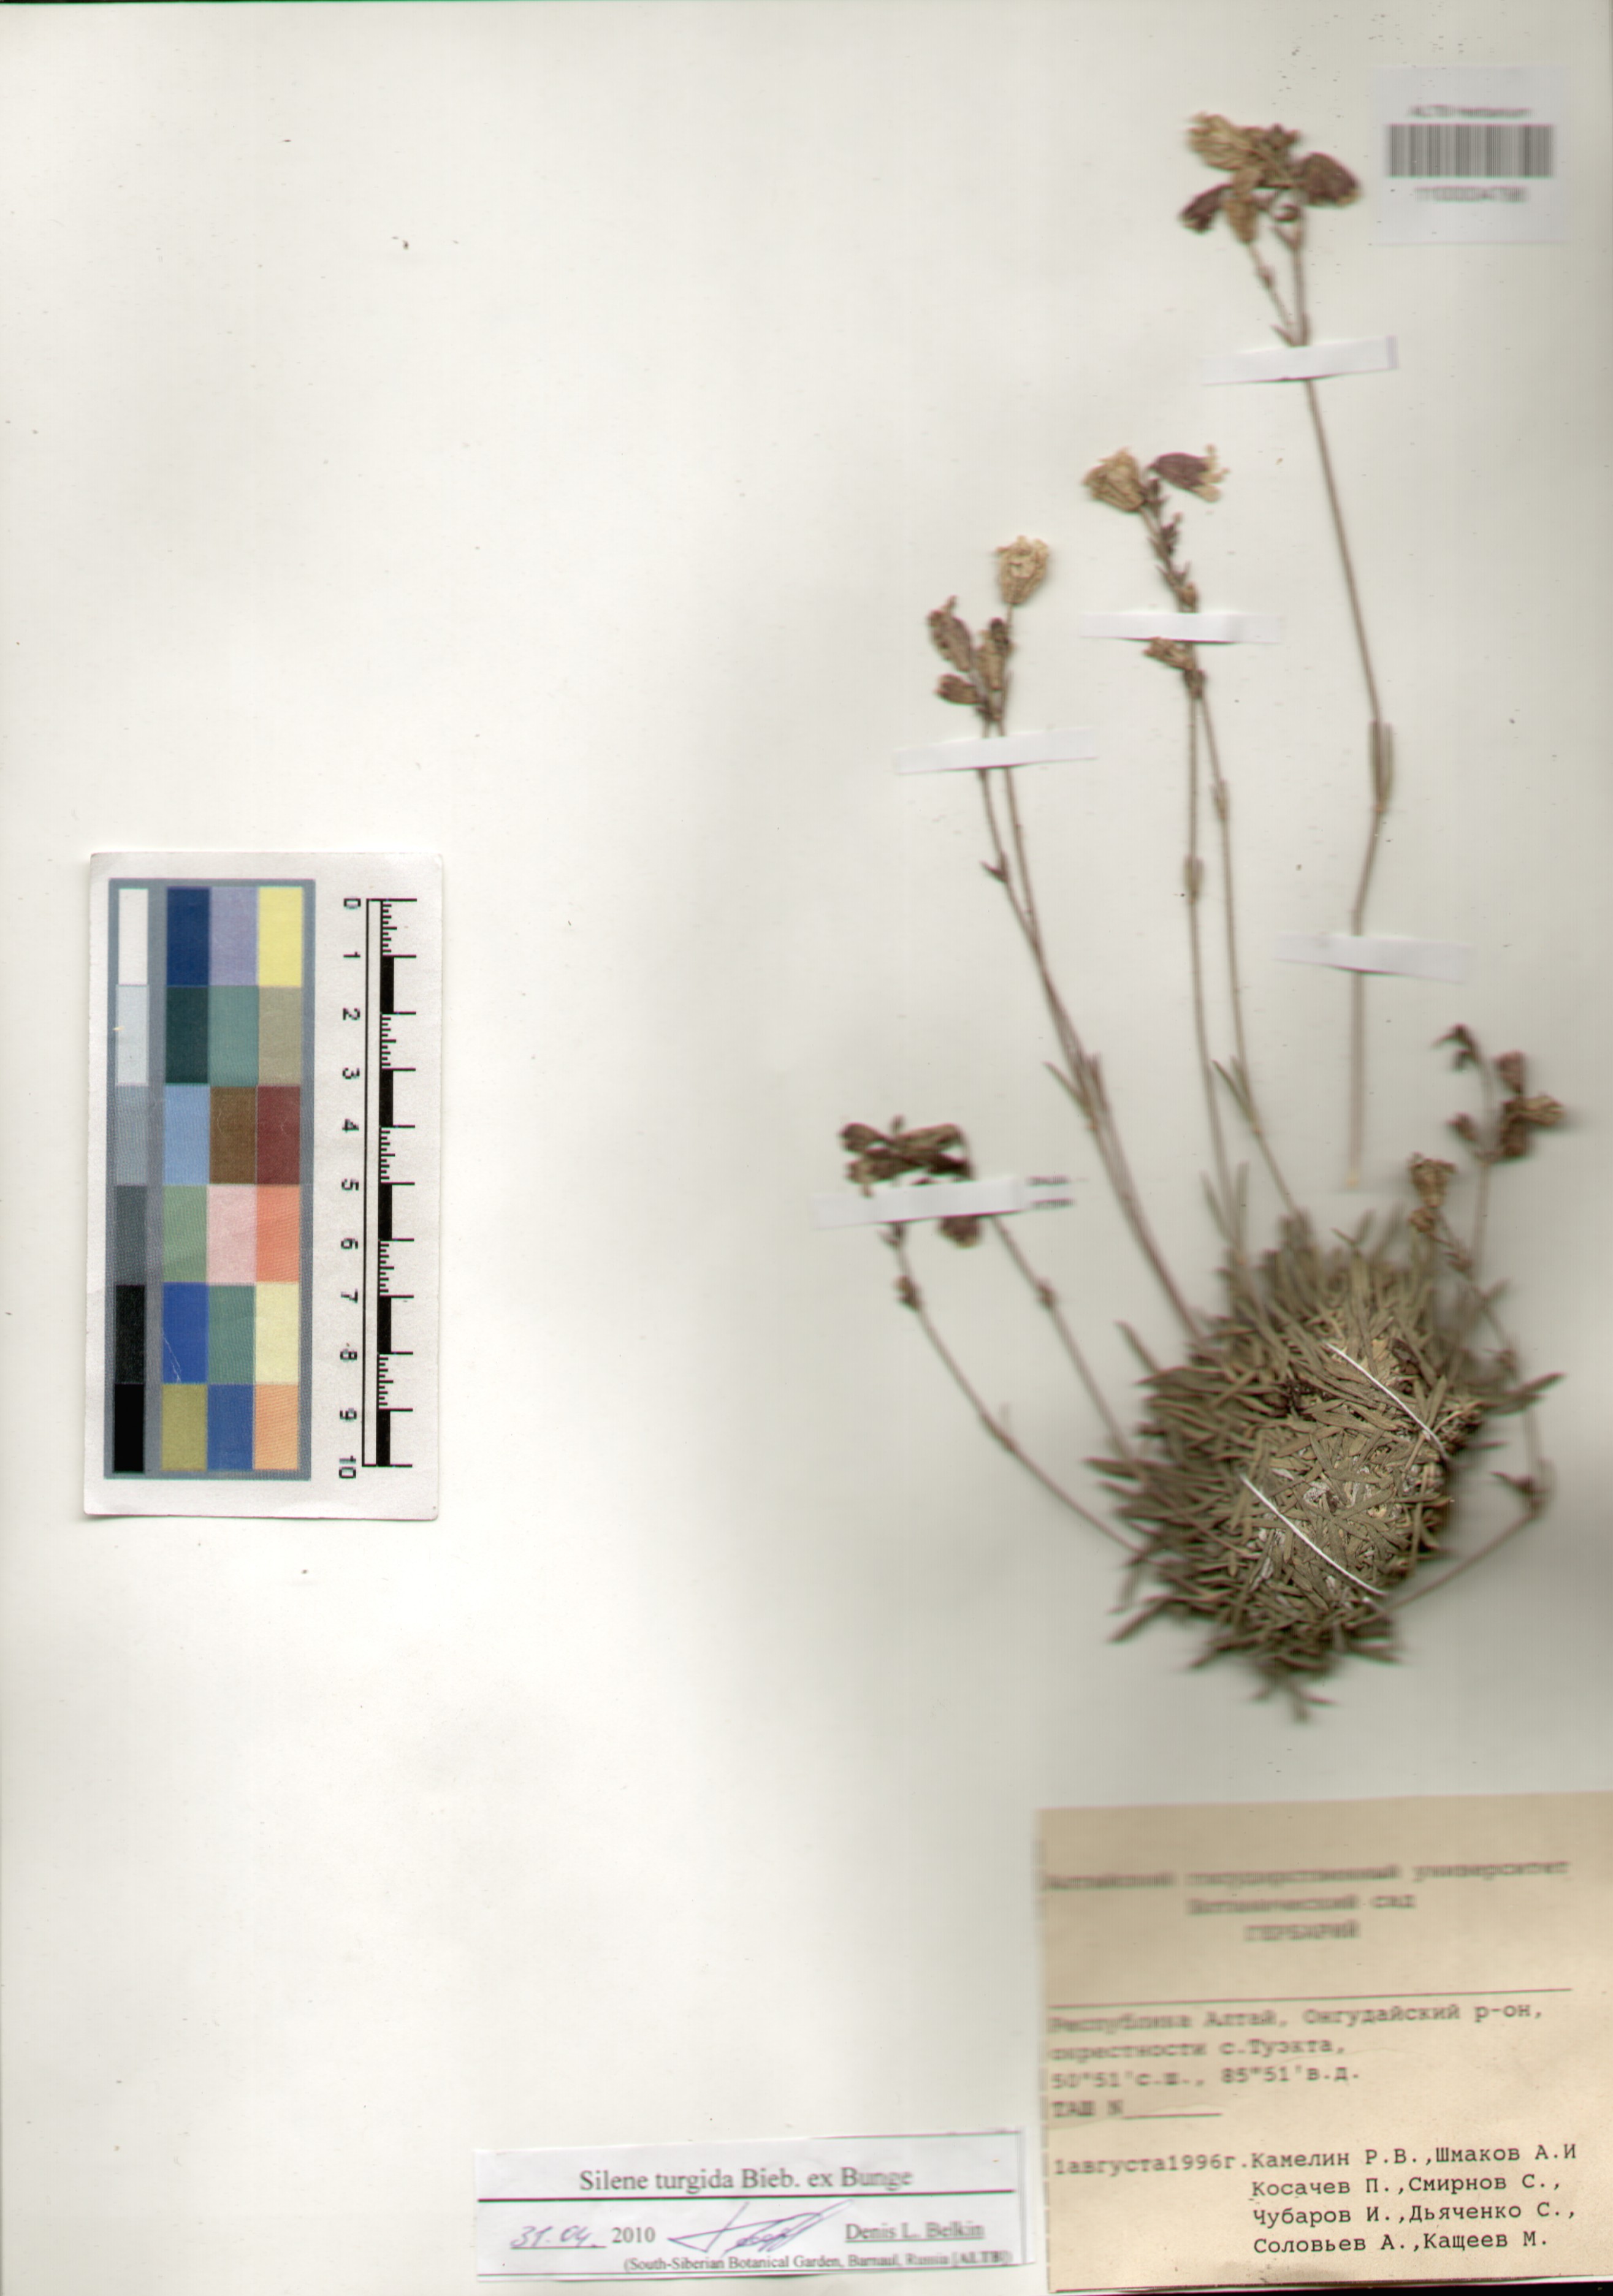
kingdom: Plantae
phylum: Tracheophyta
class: Magnoliopsida
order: Caryophyllales
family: Caryophyllaceae
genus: Silene
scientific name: Silene turgida
